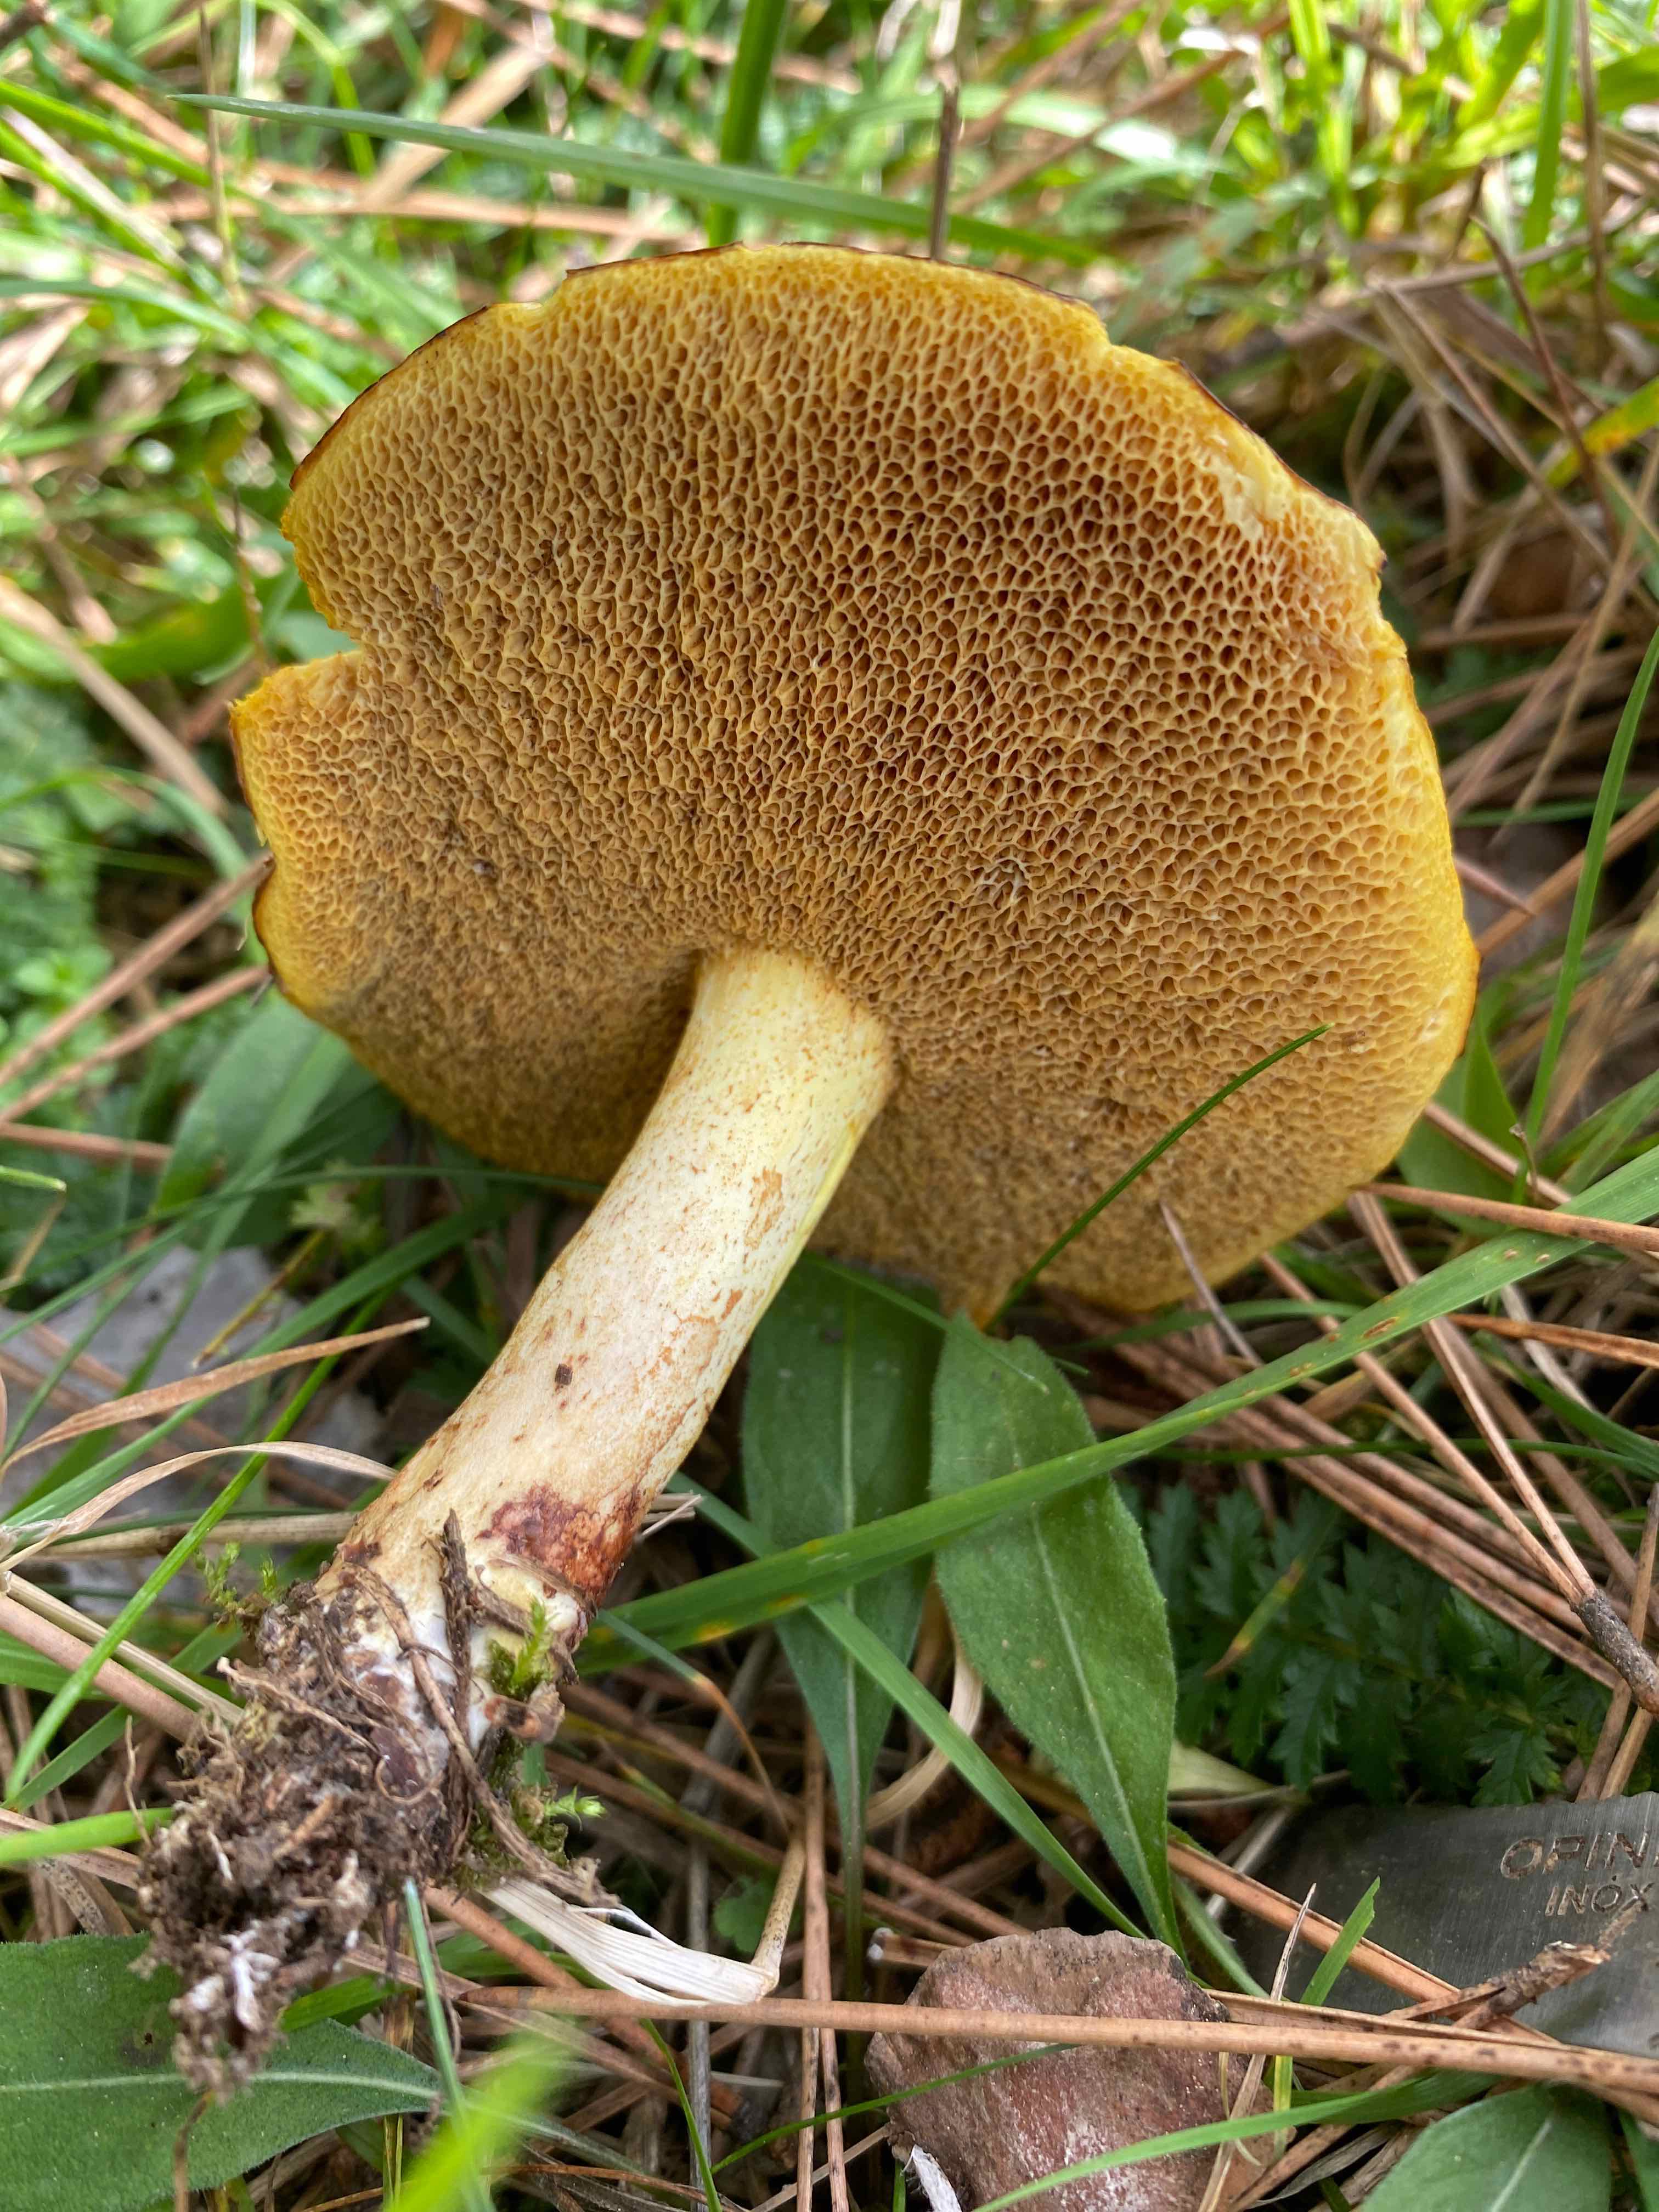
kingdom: Fungi
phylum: Basidiomycota
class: Agaricomycetes
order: Boletales
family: Suillaceae
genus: Suillus
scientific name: Suillus bovinus
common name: grovporet slimrørhat
